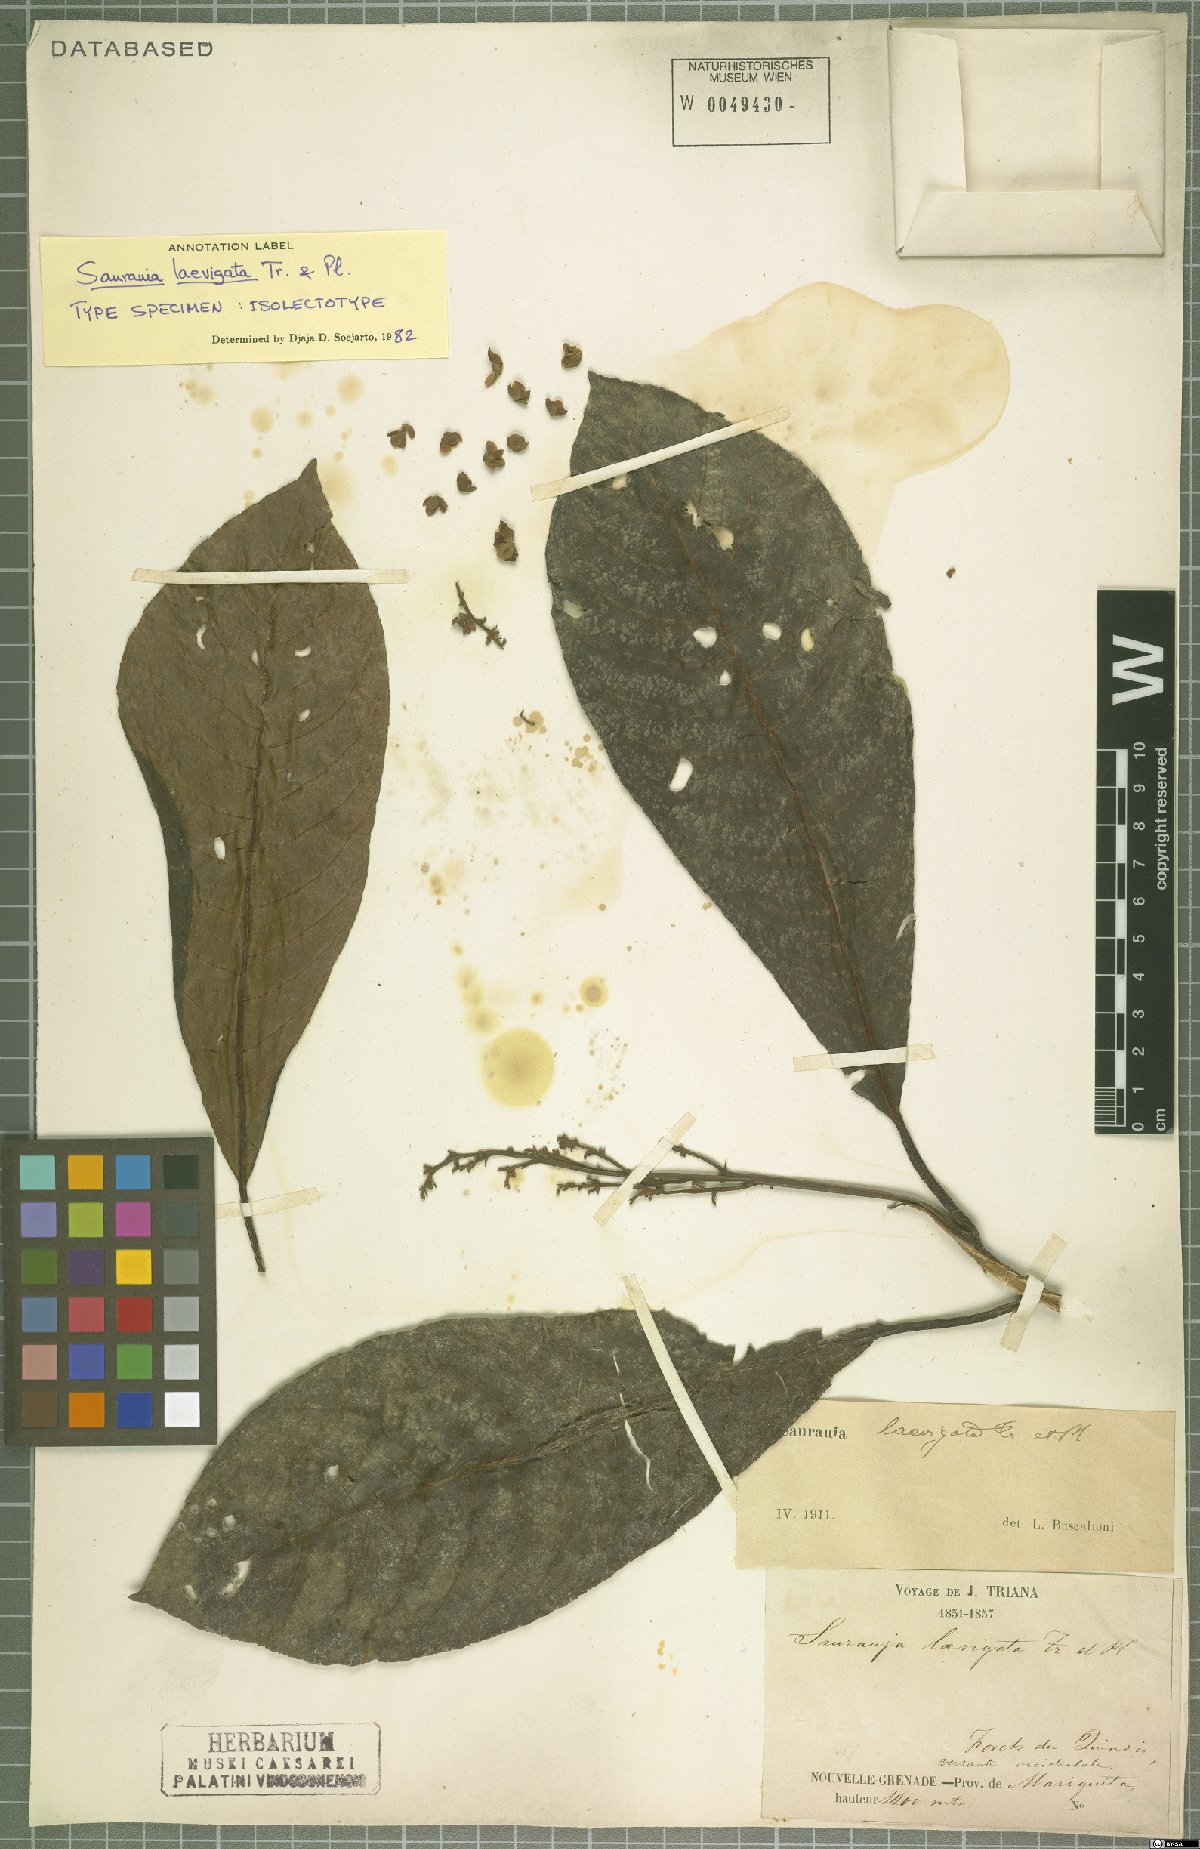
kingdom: Plantae
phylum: Tracheophyta
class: Magnoliopsida
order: Ericales
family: Actinidiaceae
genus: Saurauia
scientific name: Saurauia laevigata
